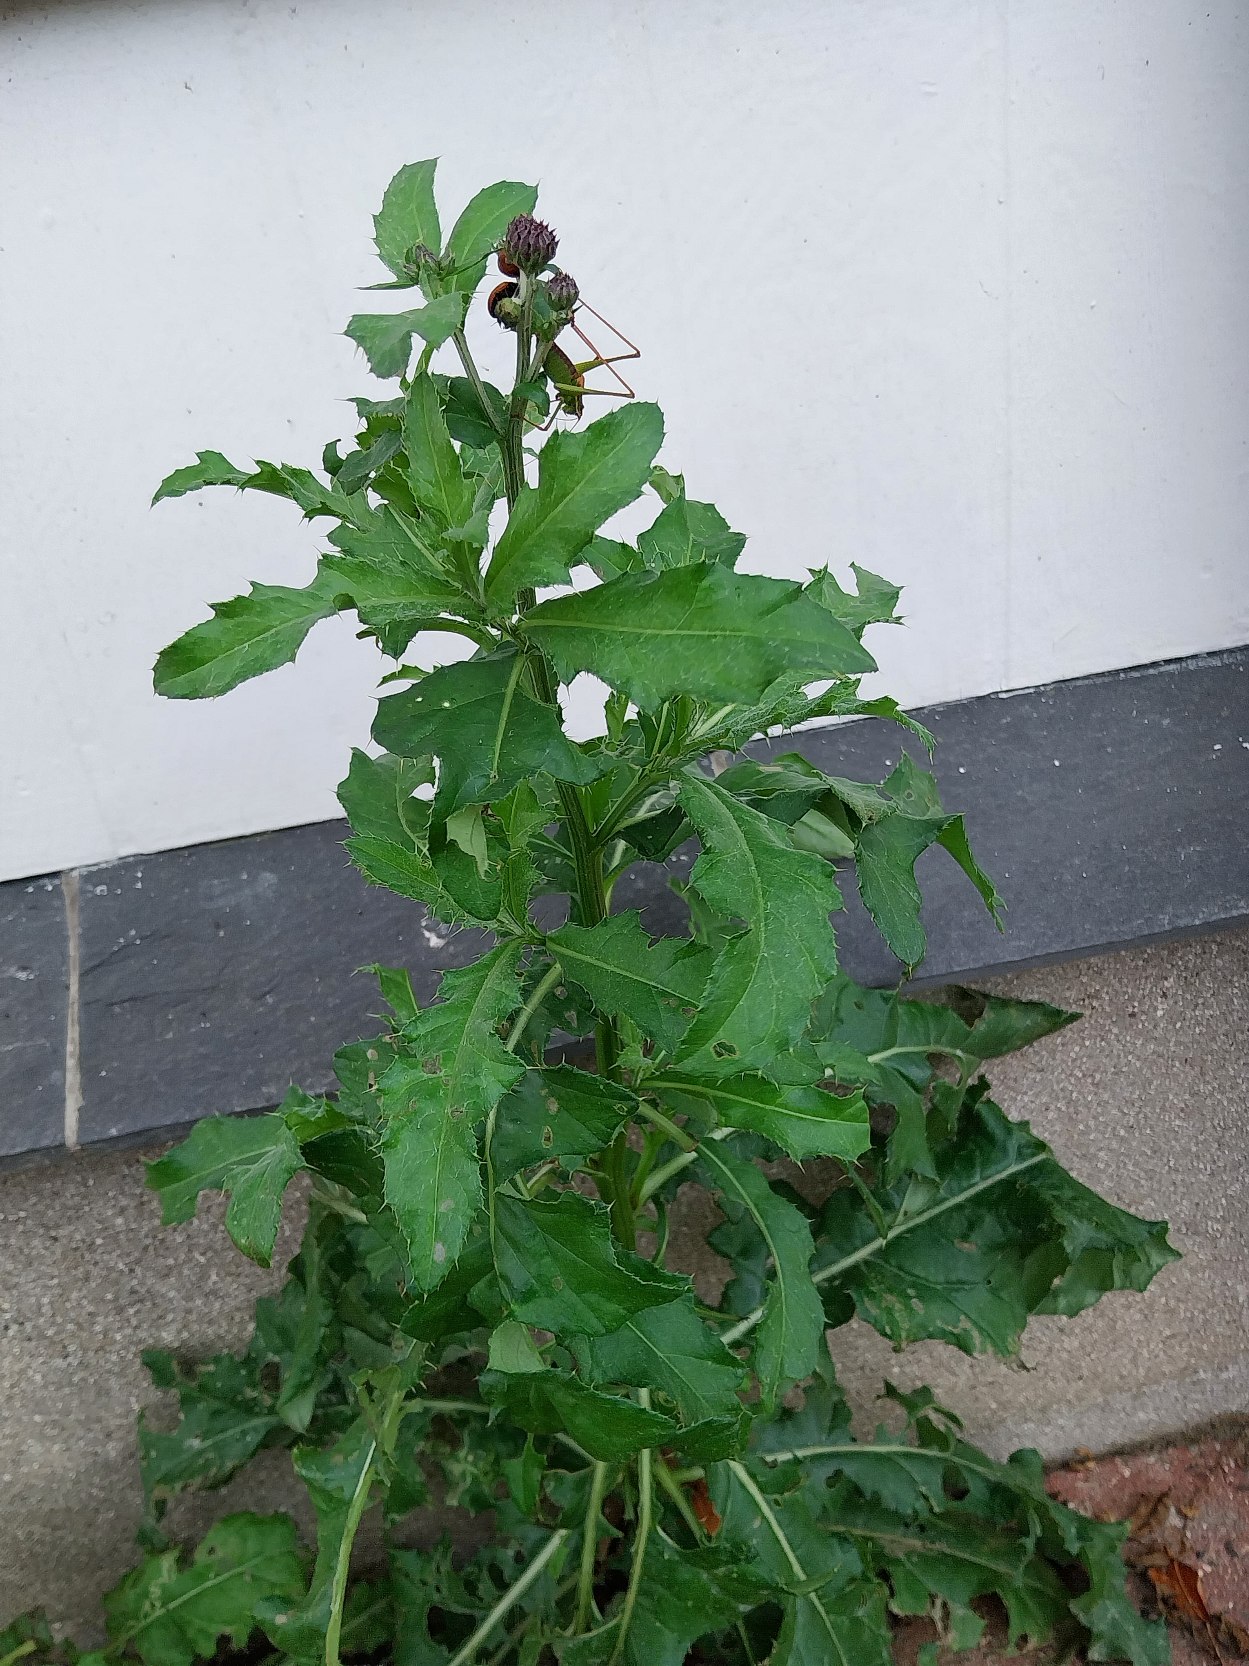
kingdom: Plantae
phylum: Tracheophyta
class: Magnoliopsida
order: Asterales
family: Asteraceae
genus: Cirsium
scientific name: Cirsium arvense
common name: Ager-tidsel
